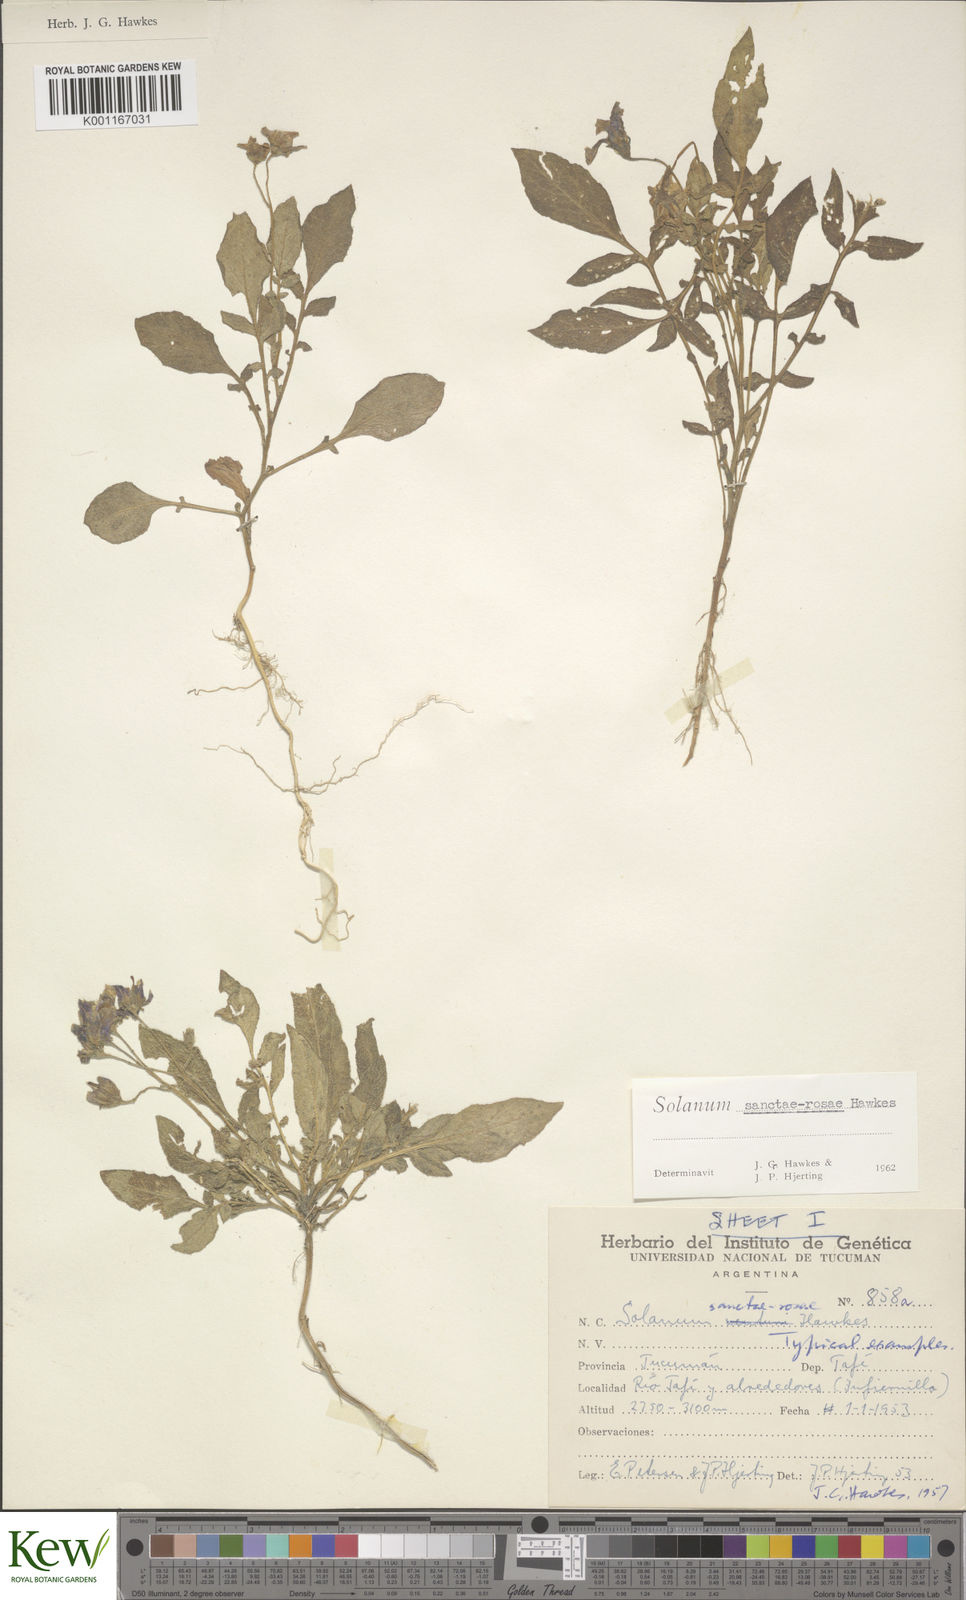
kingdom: Plantae
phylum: Tracheophyta
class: Magnoliopsida
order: Solanales
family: Solanaceae
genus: Solanum
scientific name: Solanum boliviense
